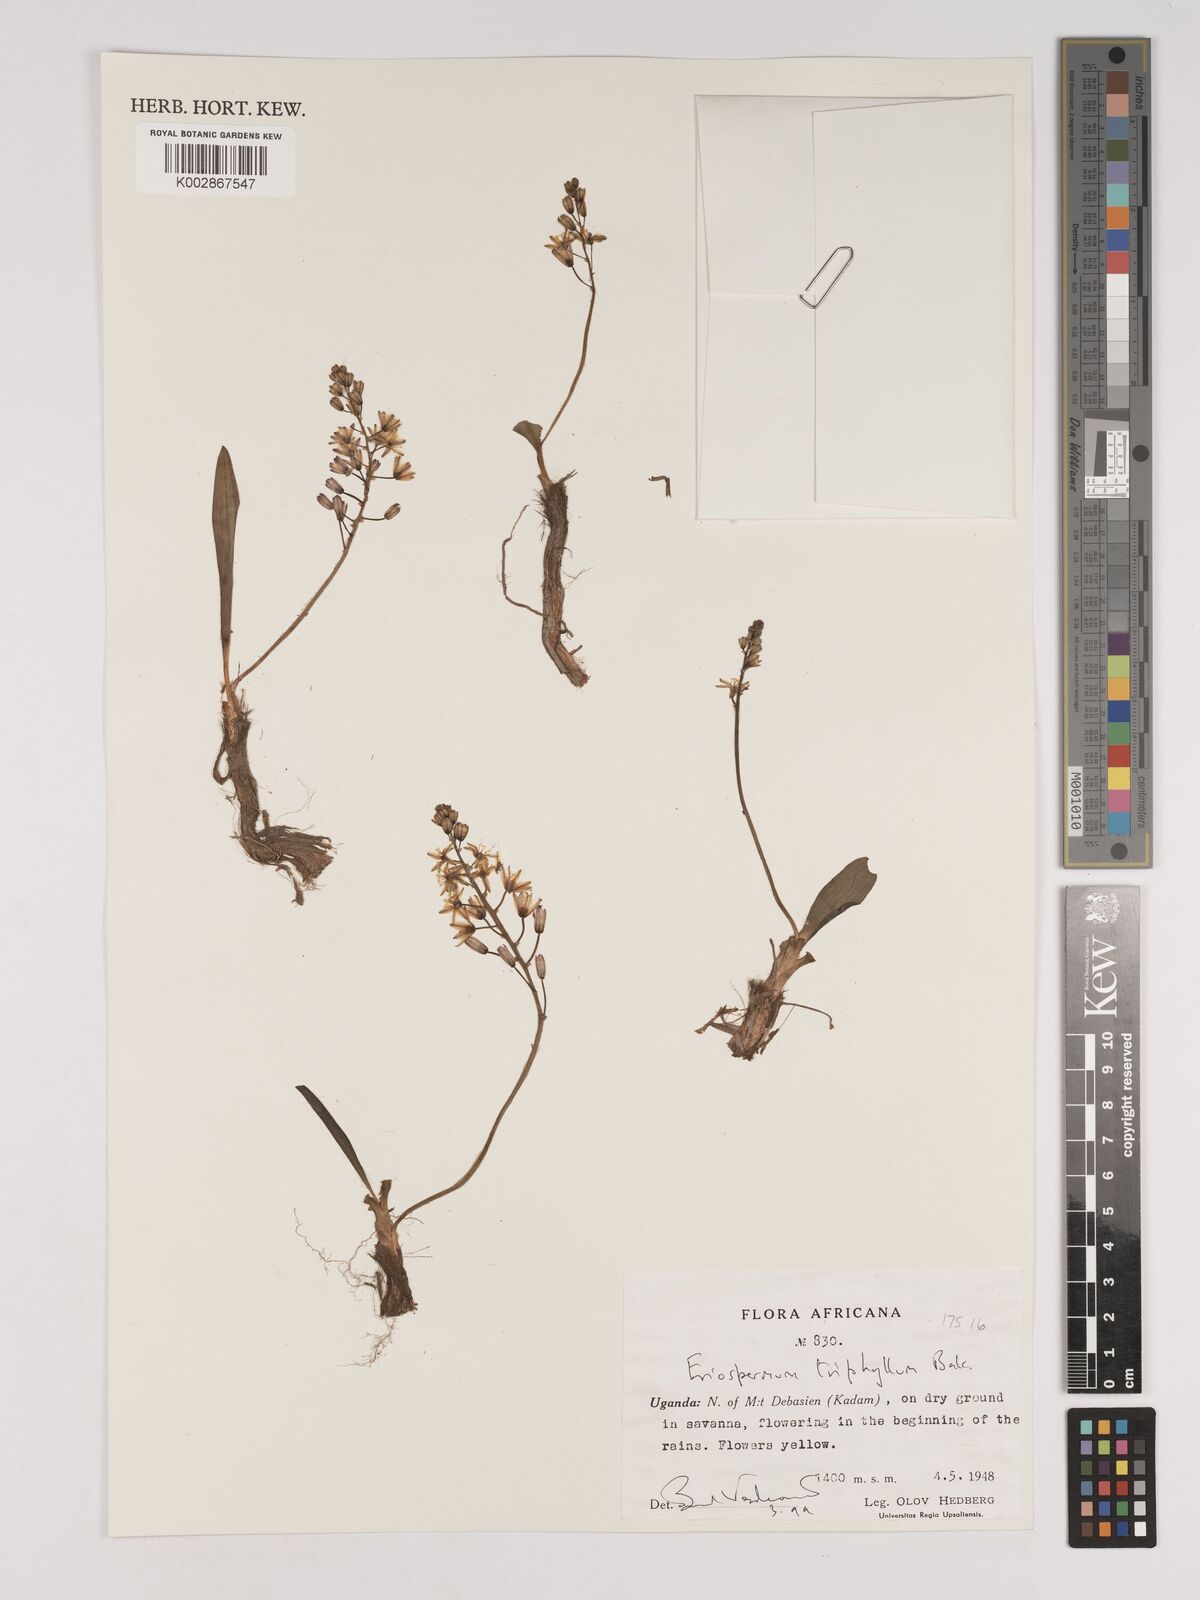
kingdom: Plantae
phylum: Tracheophyta
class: Liliopsida
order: Asparagales
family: Asparagaceae
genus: Eriospermum
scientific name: Eriospermum triphyllum
